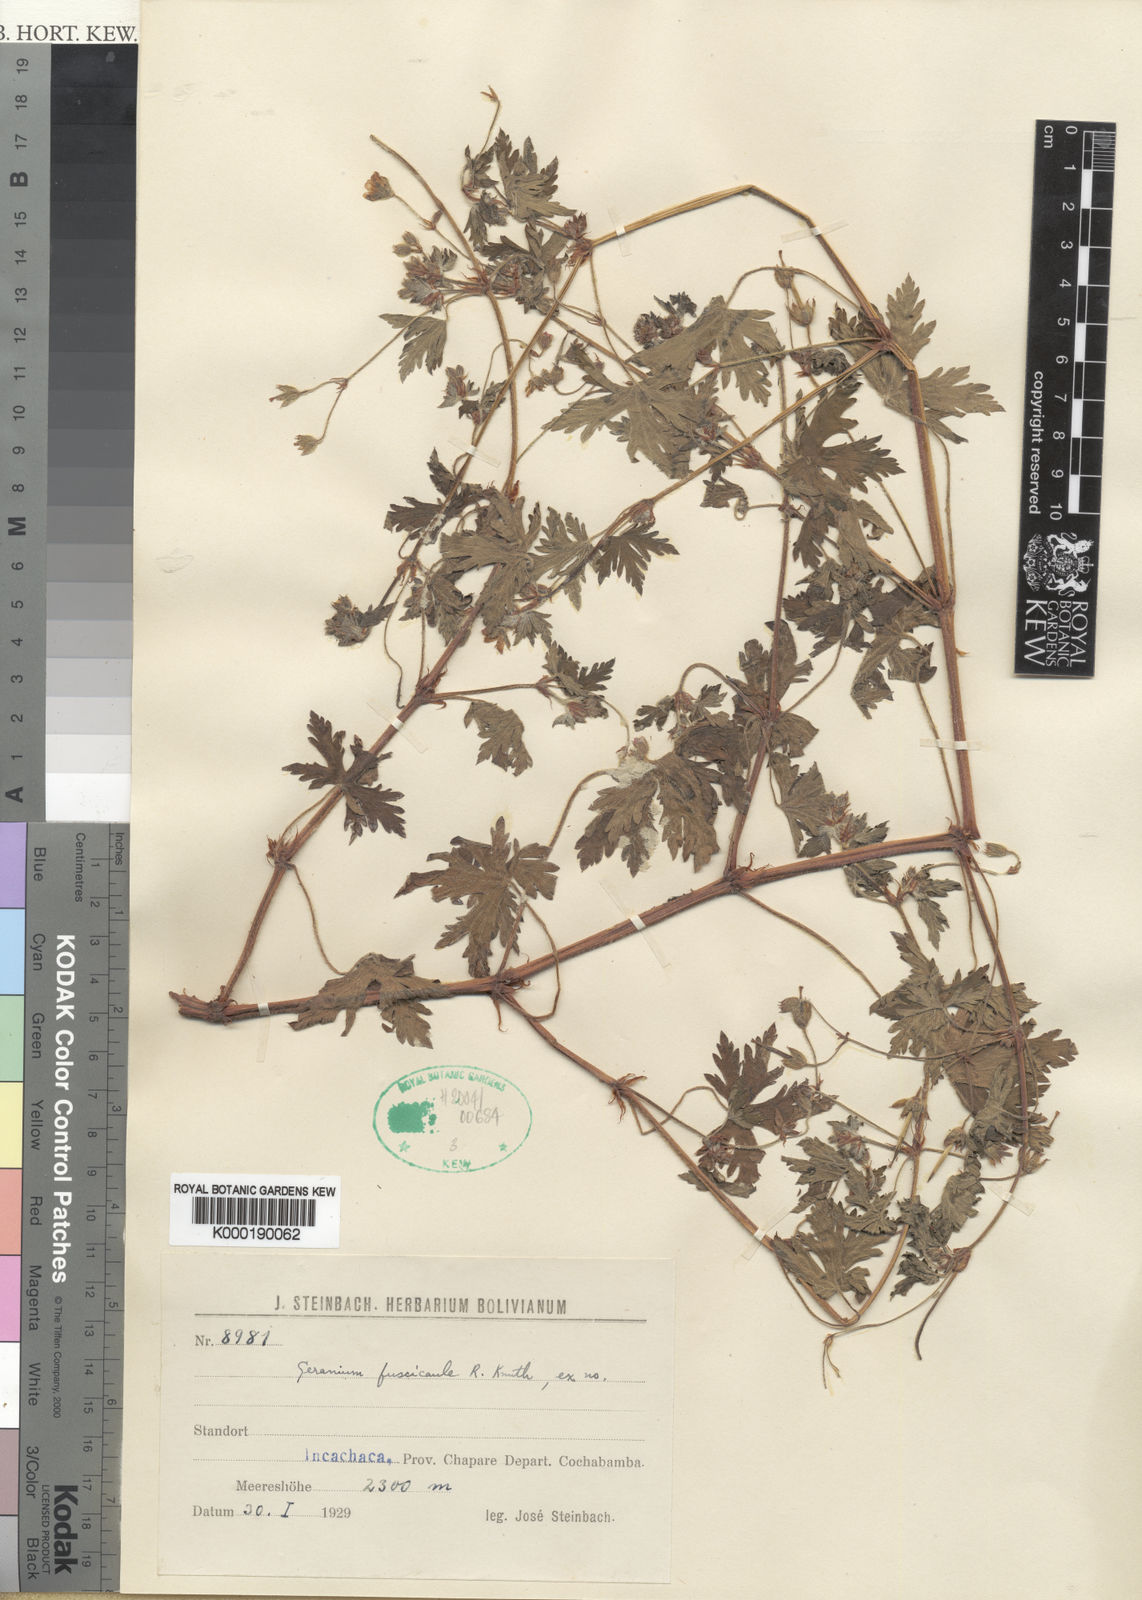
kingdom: Plantae
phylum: Tracheophyta
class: Magnoliopsida
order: Geraniales
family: Geraniaceae
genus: Geranium
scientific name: Geranium fallax
